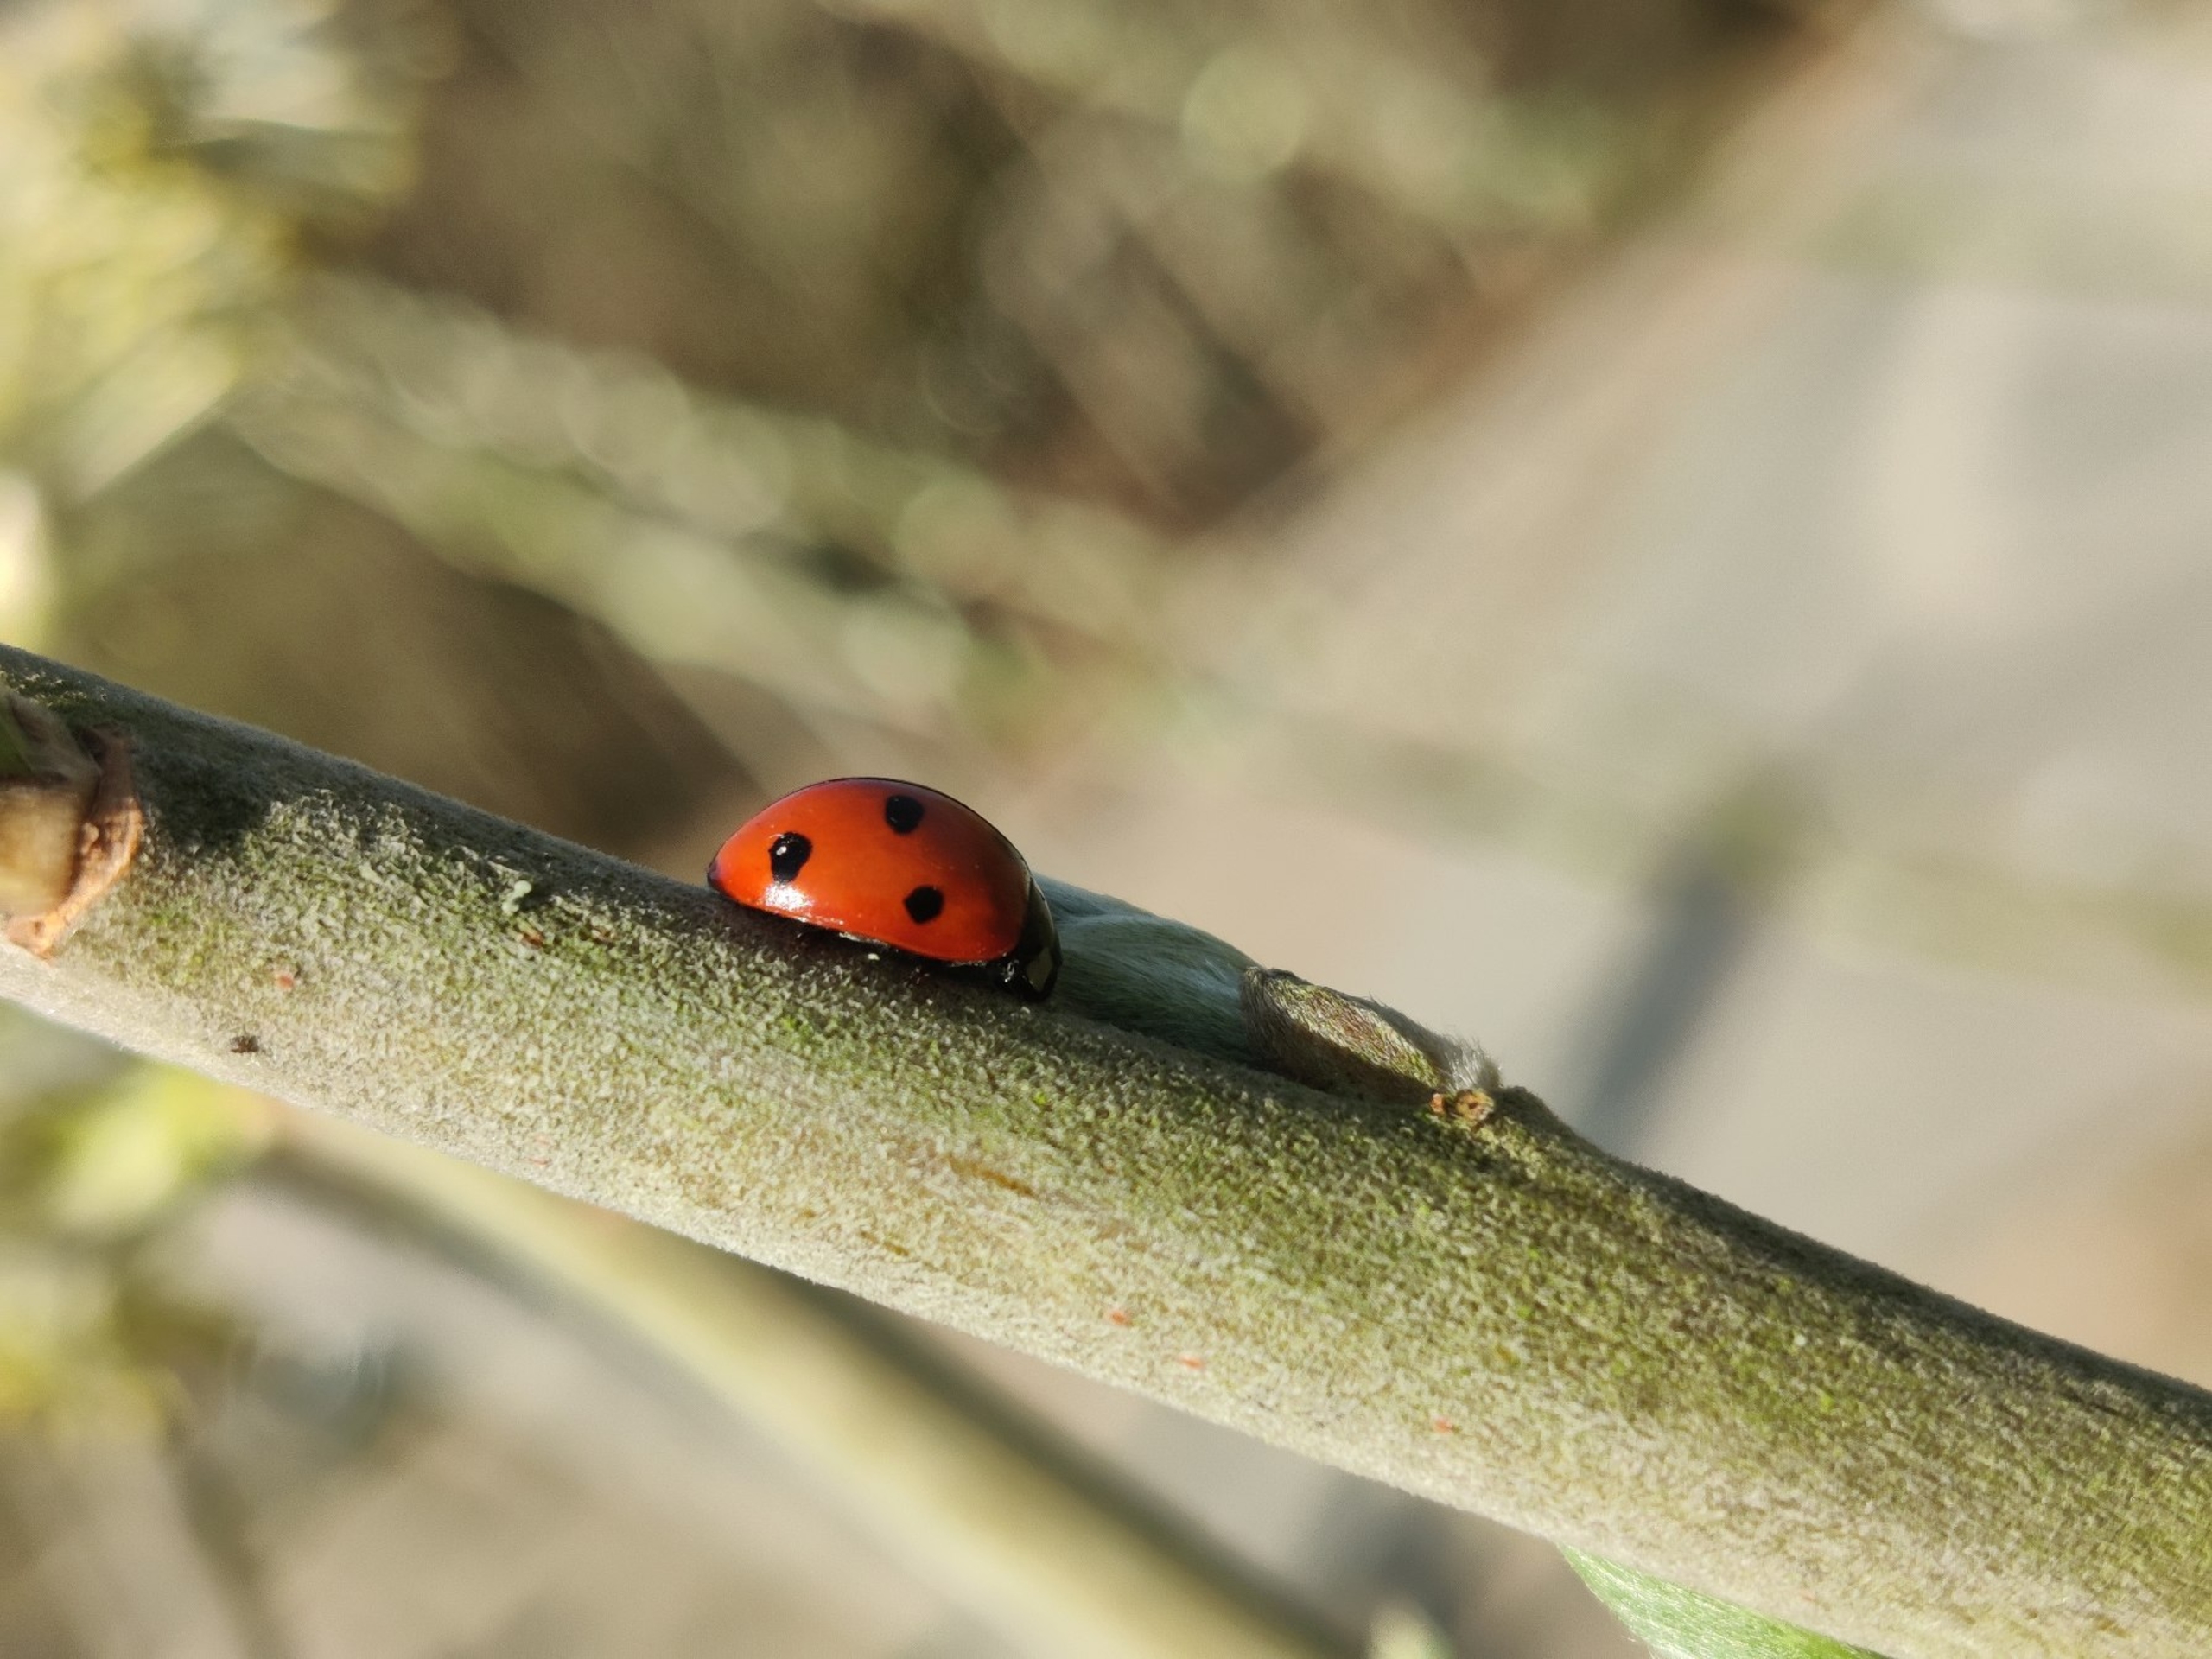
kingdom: Animalia
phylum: Arthropoda
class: Insecta
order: Coleoptera
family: Coccinellidae
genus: Coccinella
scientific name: Coccinella septempunctata
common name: Syvplettet mariehøne
